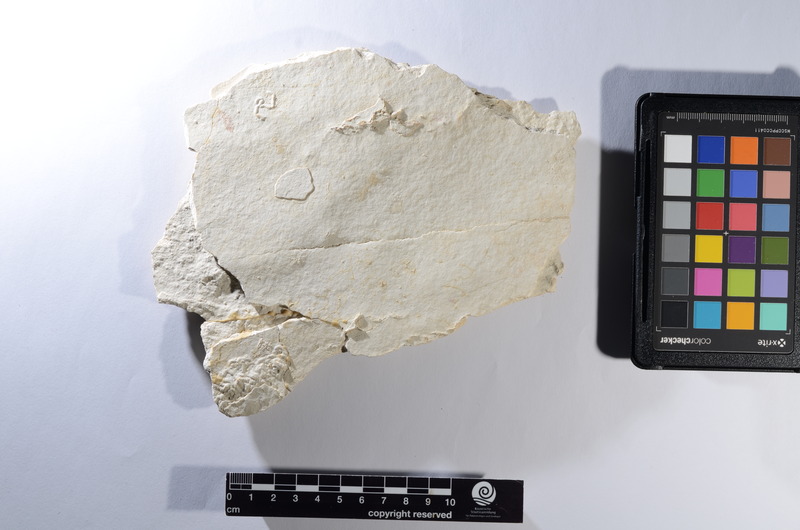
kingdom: Animalia
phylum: Chordata
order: Amiiformes
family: Caturidae
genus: Caturus
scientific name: Caturus giganteus
